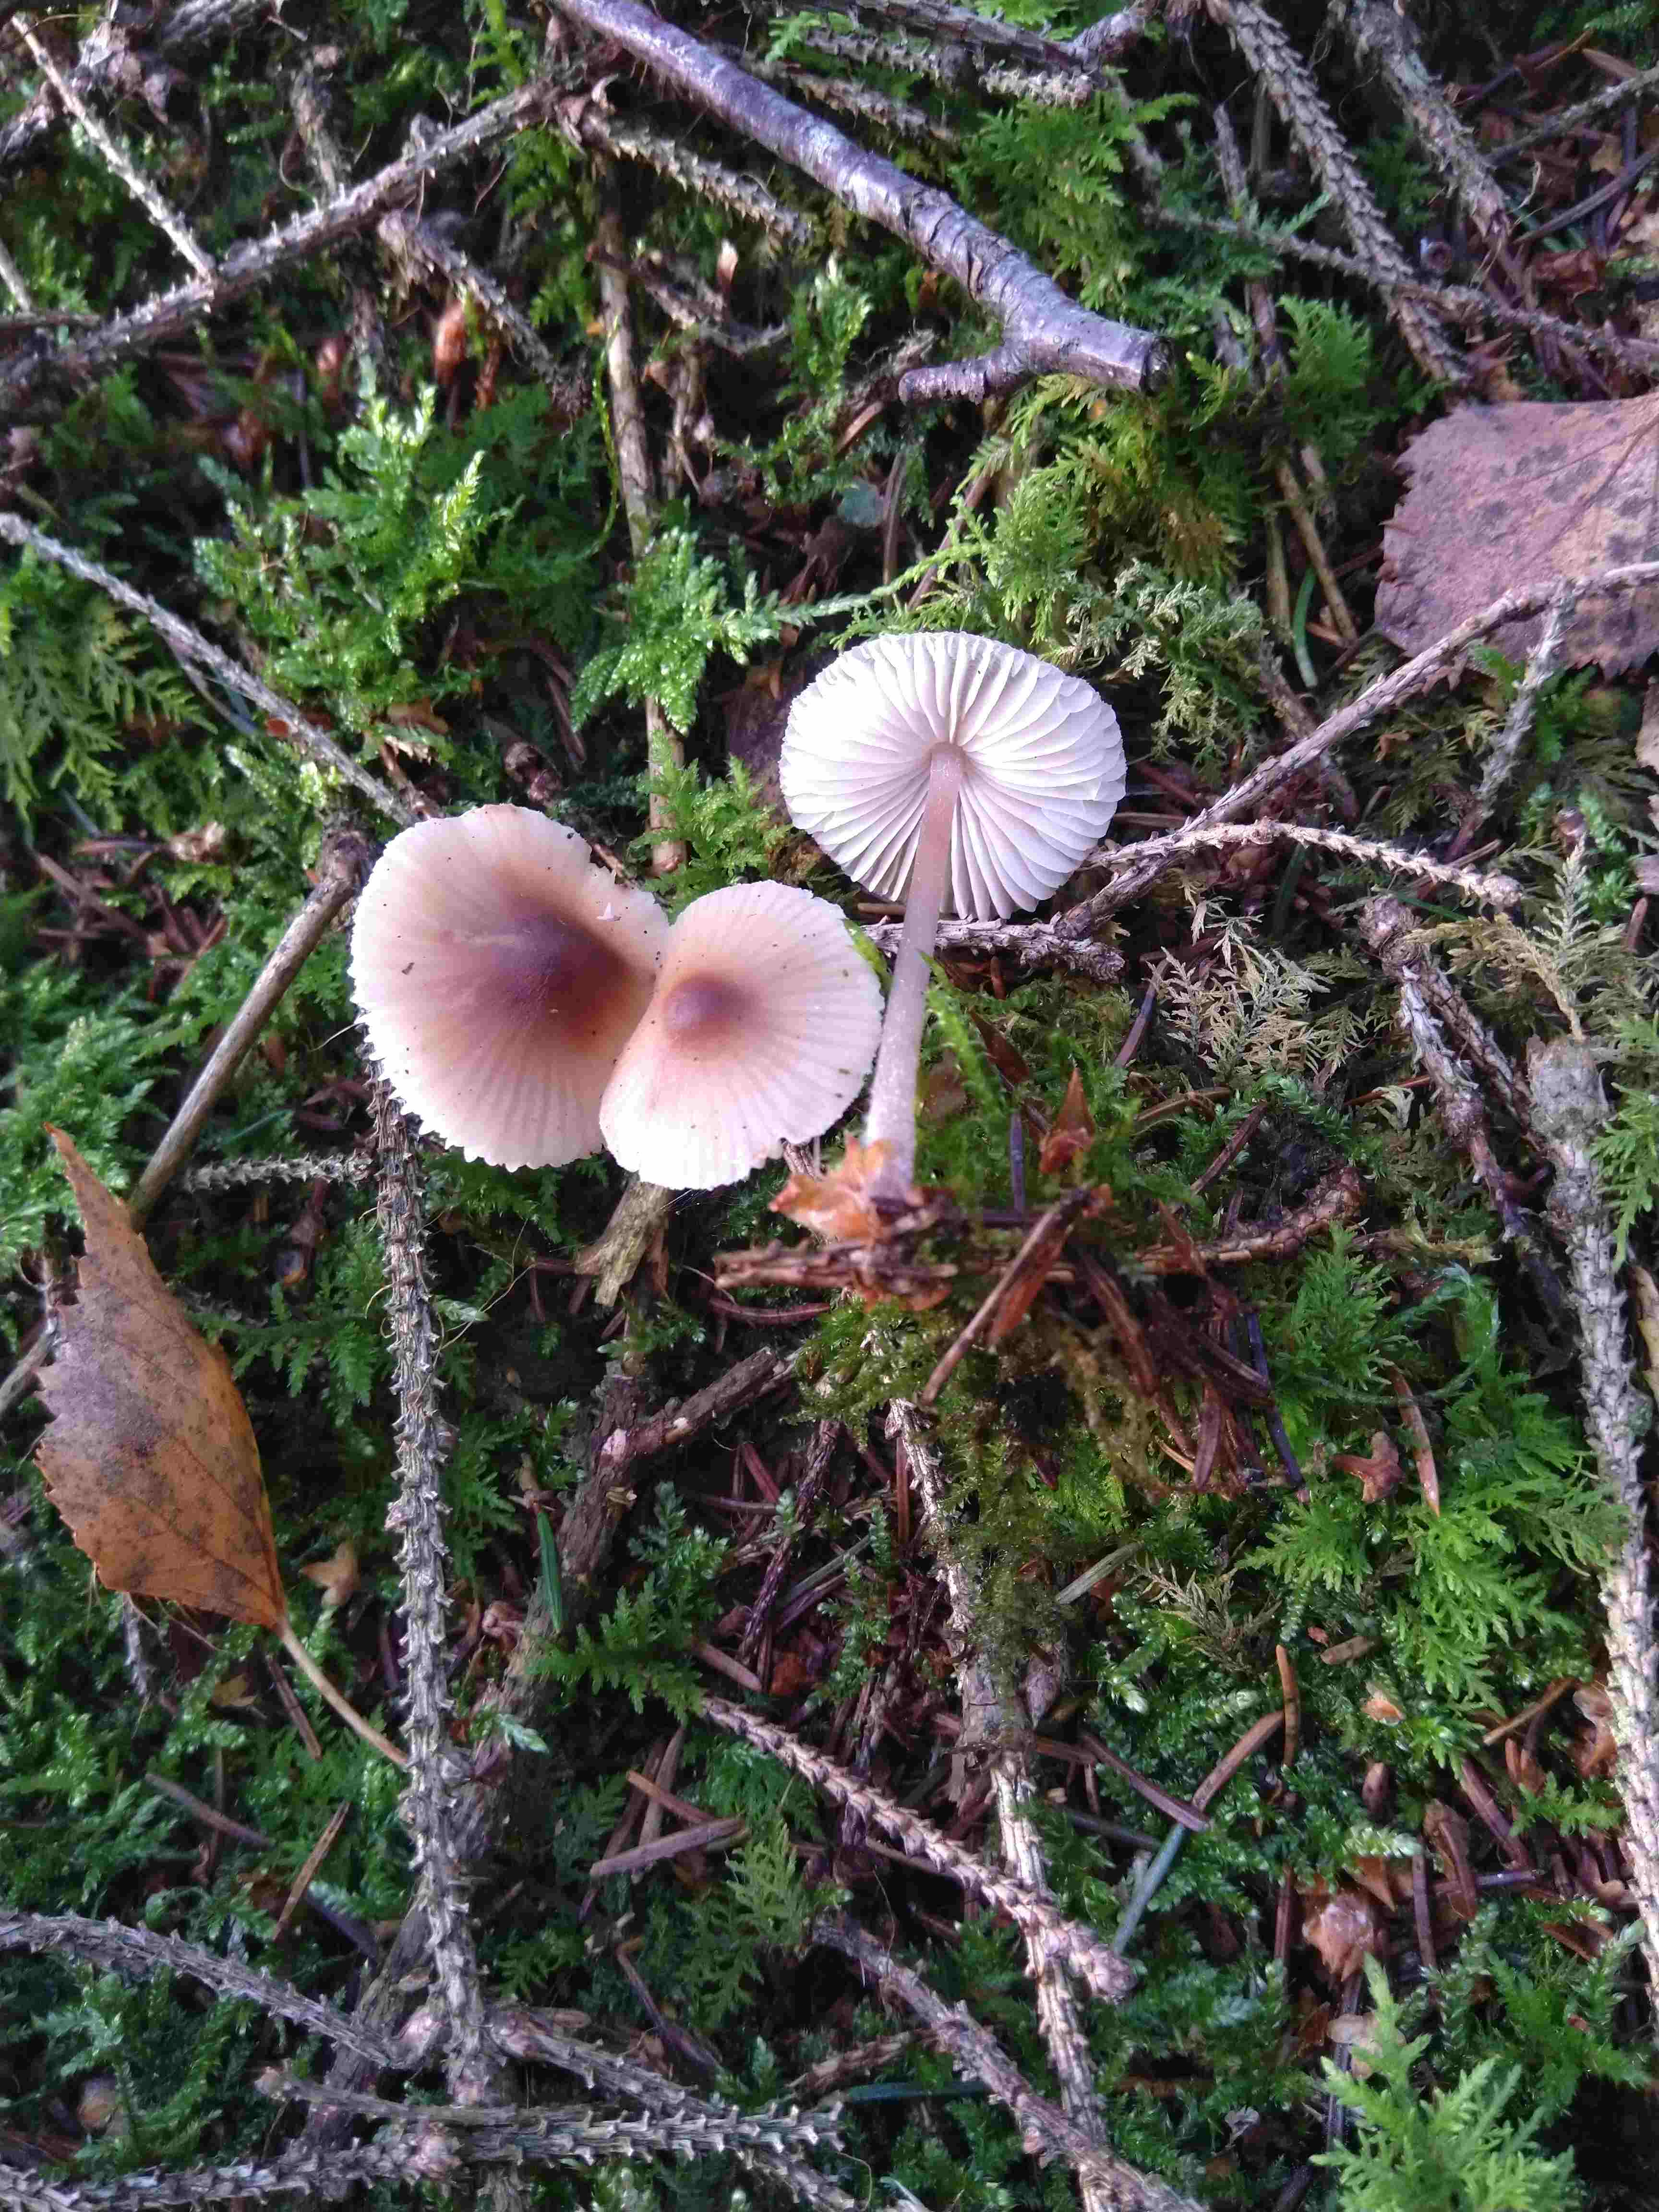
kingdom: Fungi
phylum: Basidiomycota
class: Agaricomycetes
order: Agaricales
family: Mycenaceae
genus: Mycena
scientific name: Mycena zephirus
